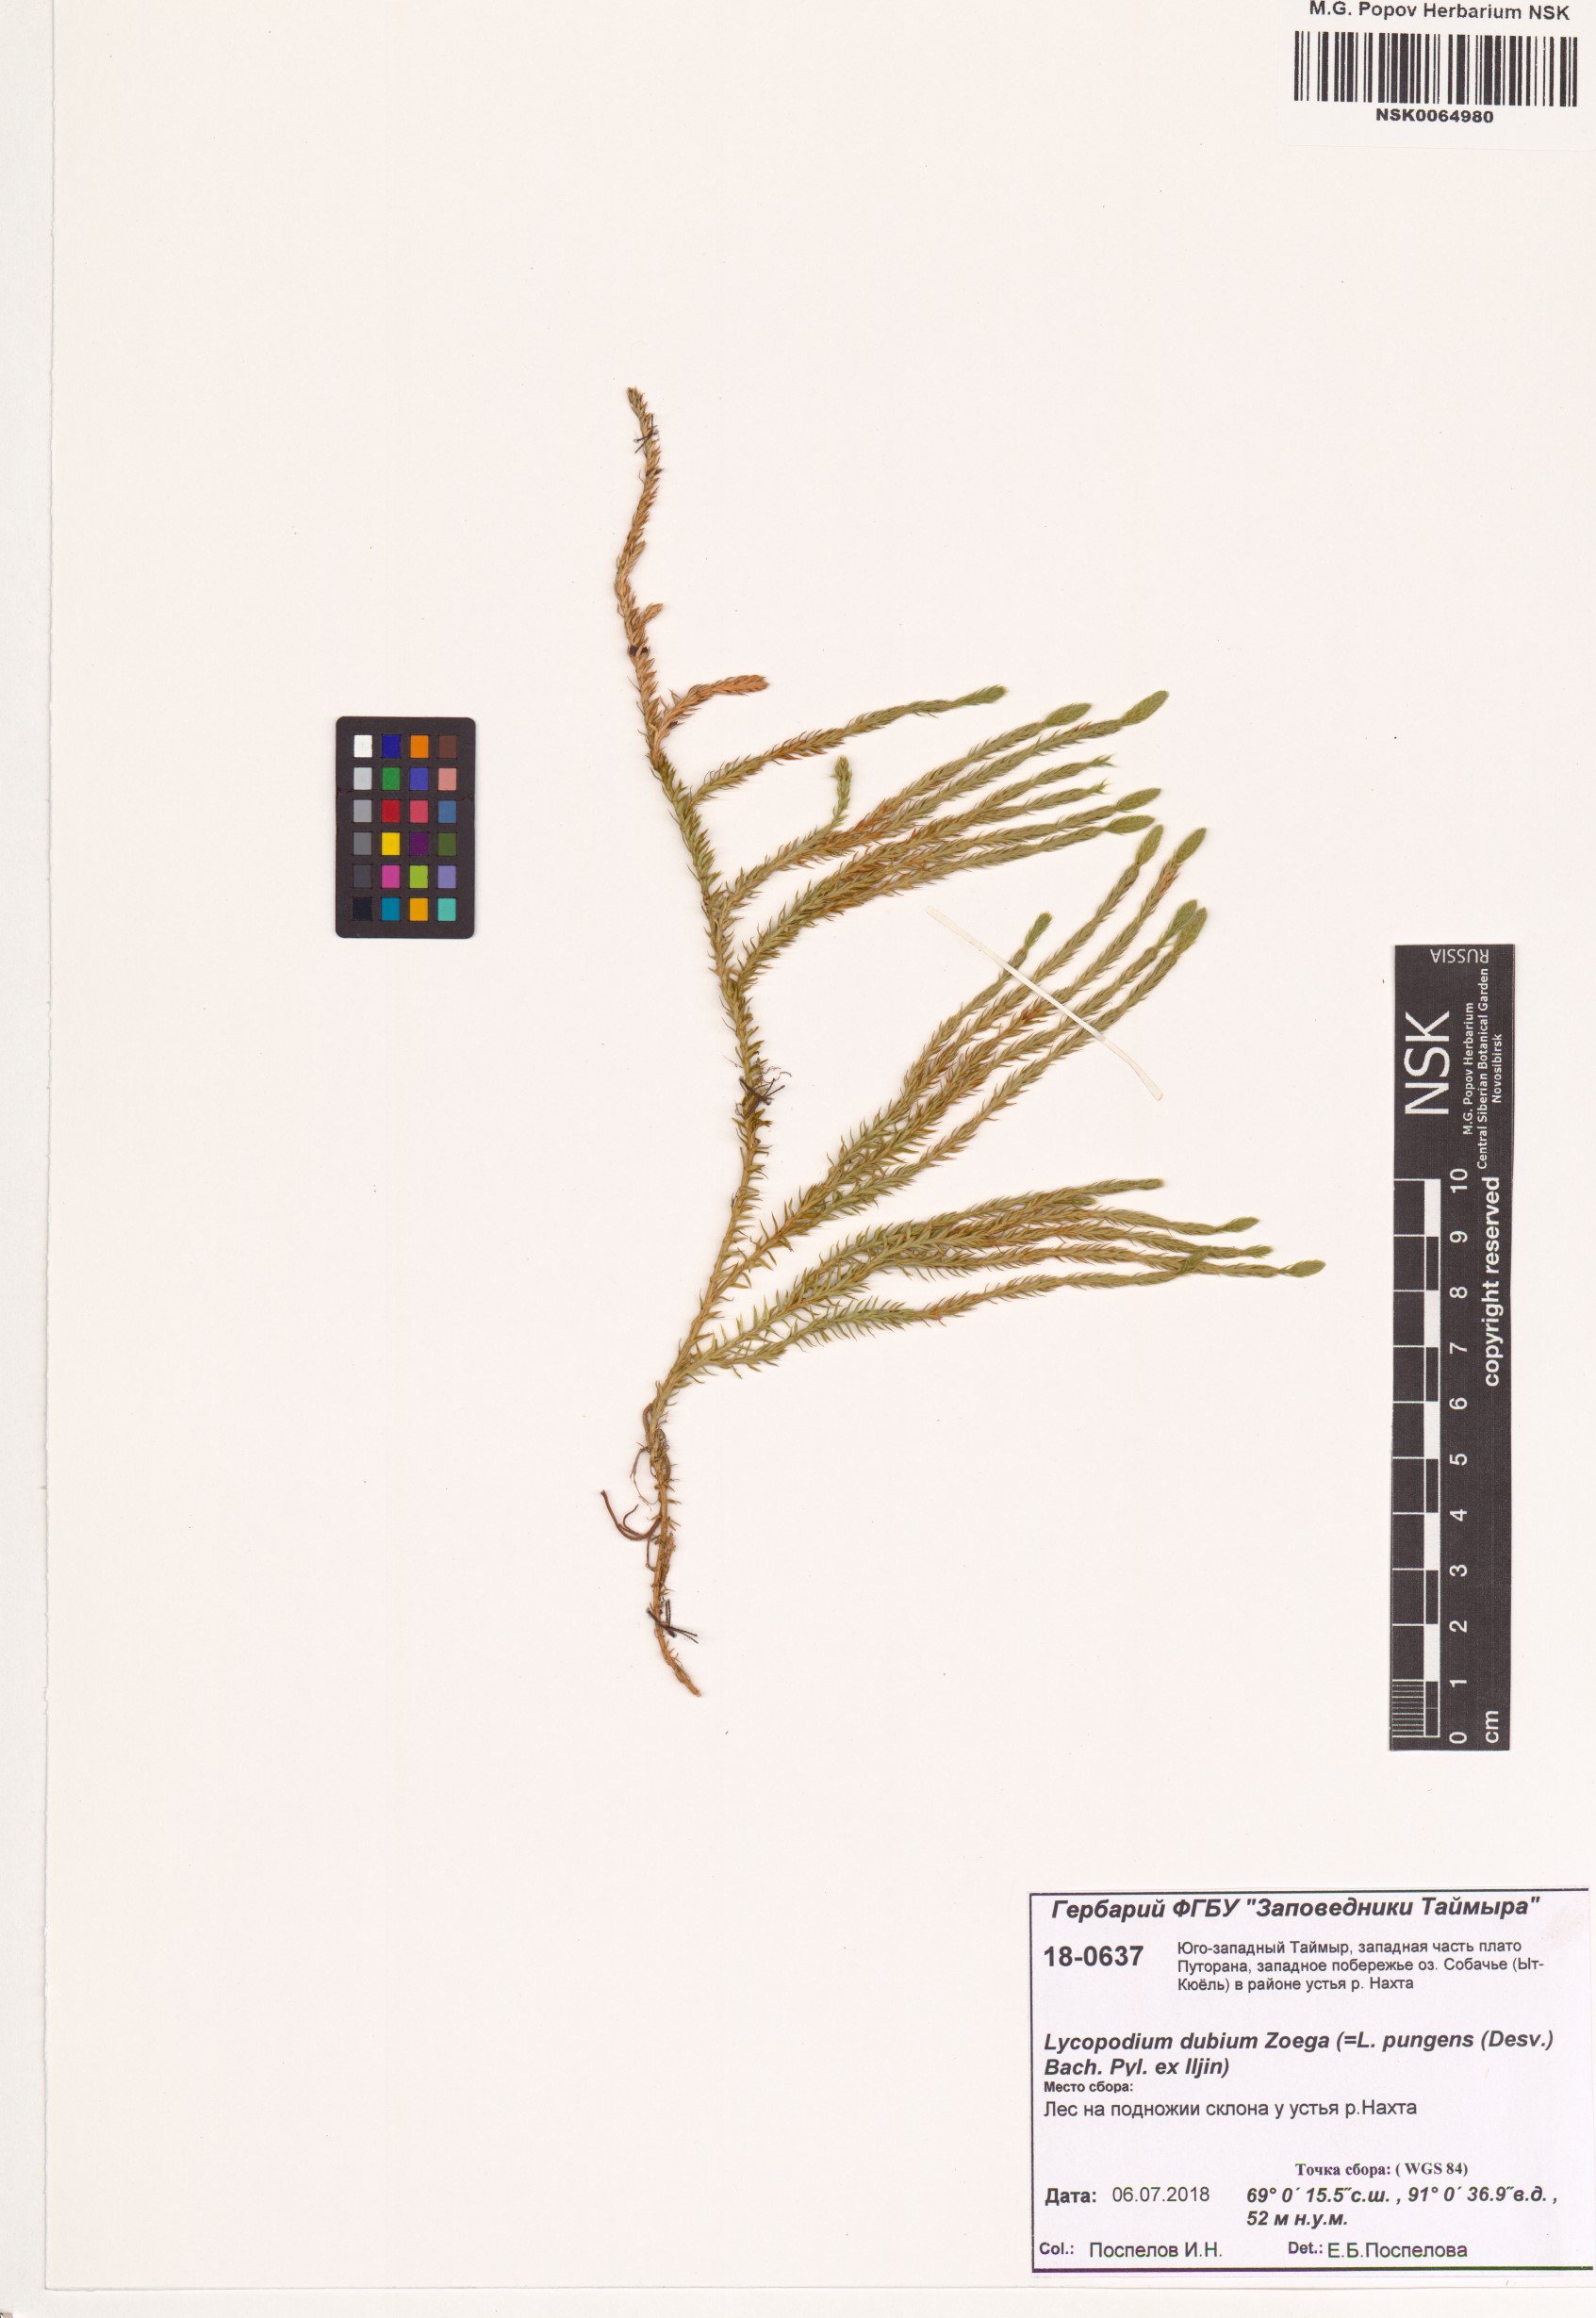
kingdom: Plantae
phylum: Tracheophyta
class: Lycopodiopsida
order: Lycopodiales
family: Lycopodiaceae
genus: Spinulum
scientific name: Spinulum annotinum
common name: Interrupted club-moss
